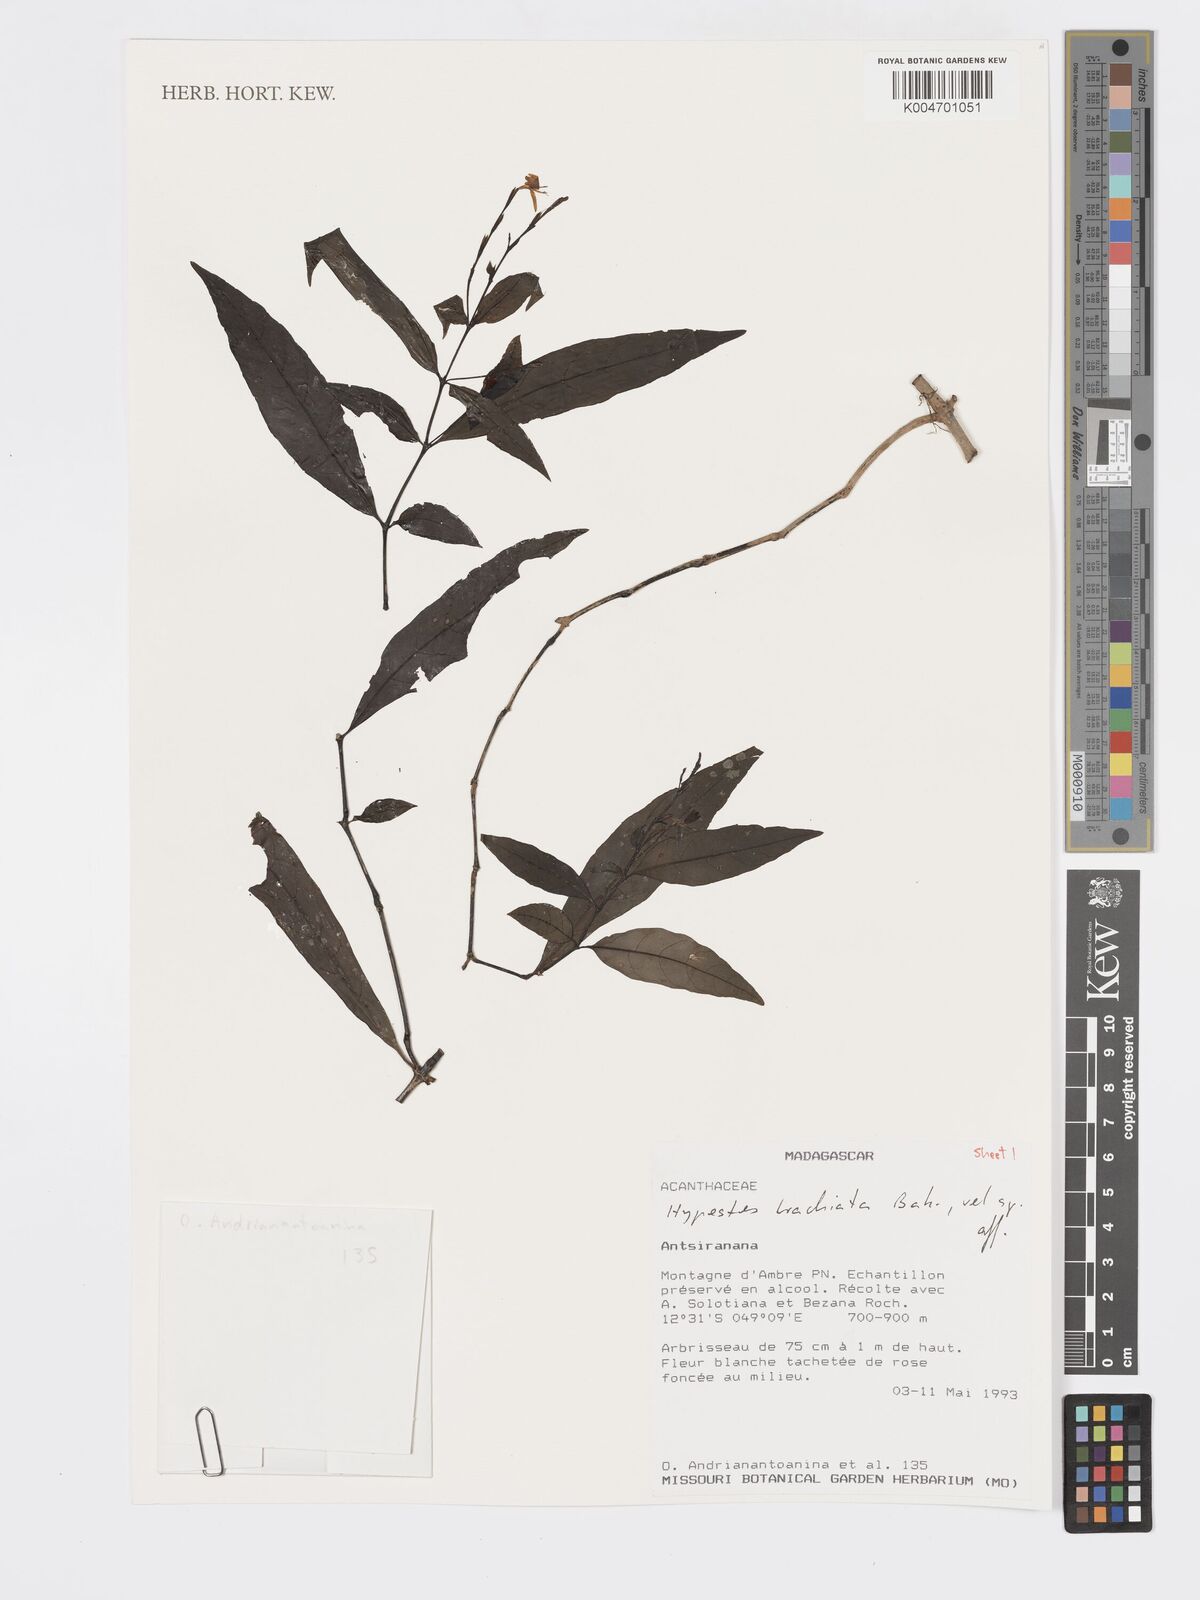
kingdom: Plantae
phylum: Tracheophyta
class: Magnoliopsida
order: Lamiales
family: Acanthaceae
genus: Hypoestes
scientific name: Hypoestes
